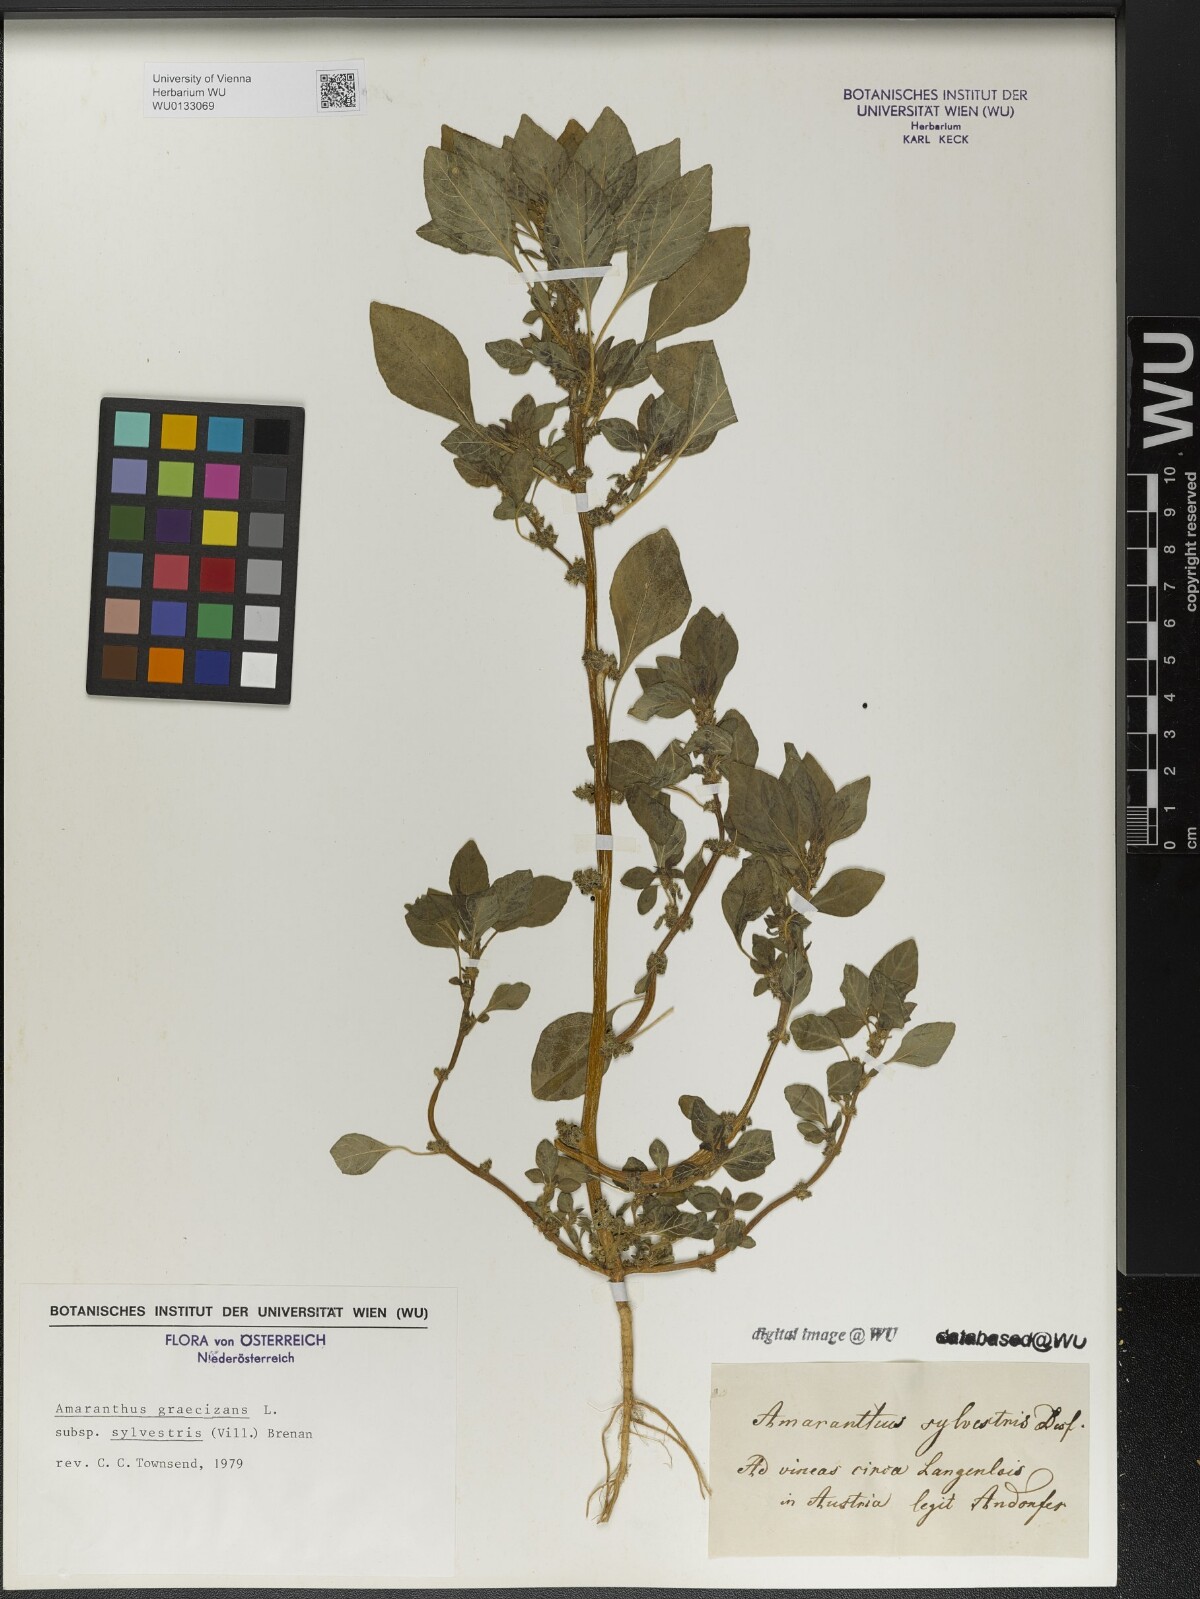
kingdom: Plantae
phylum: Tracheophyta
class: Magnoliopsida
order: Caryophyllales
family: Amaranthaceae
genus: Amaranthus
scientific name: Amaranthus graecizans
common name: Mediterranean amaranth
